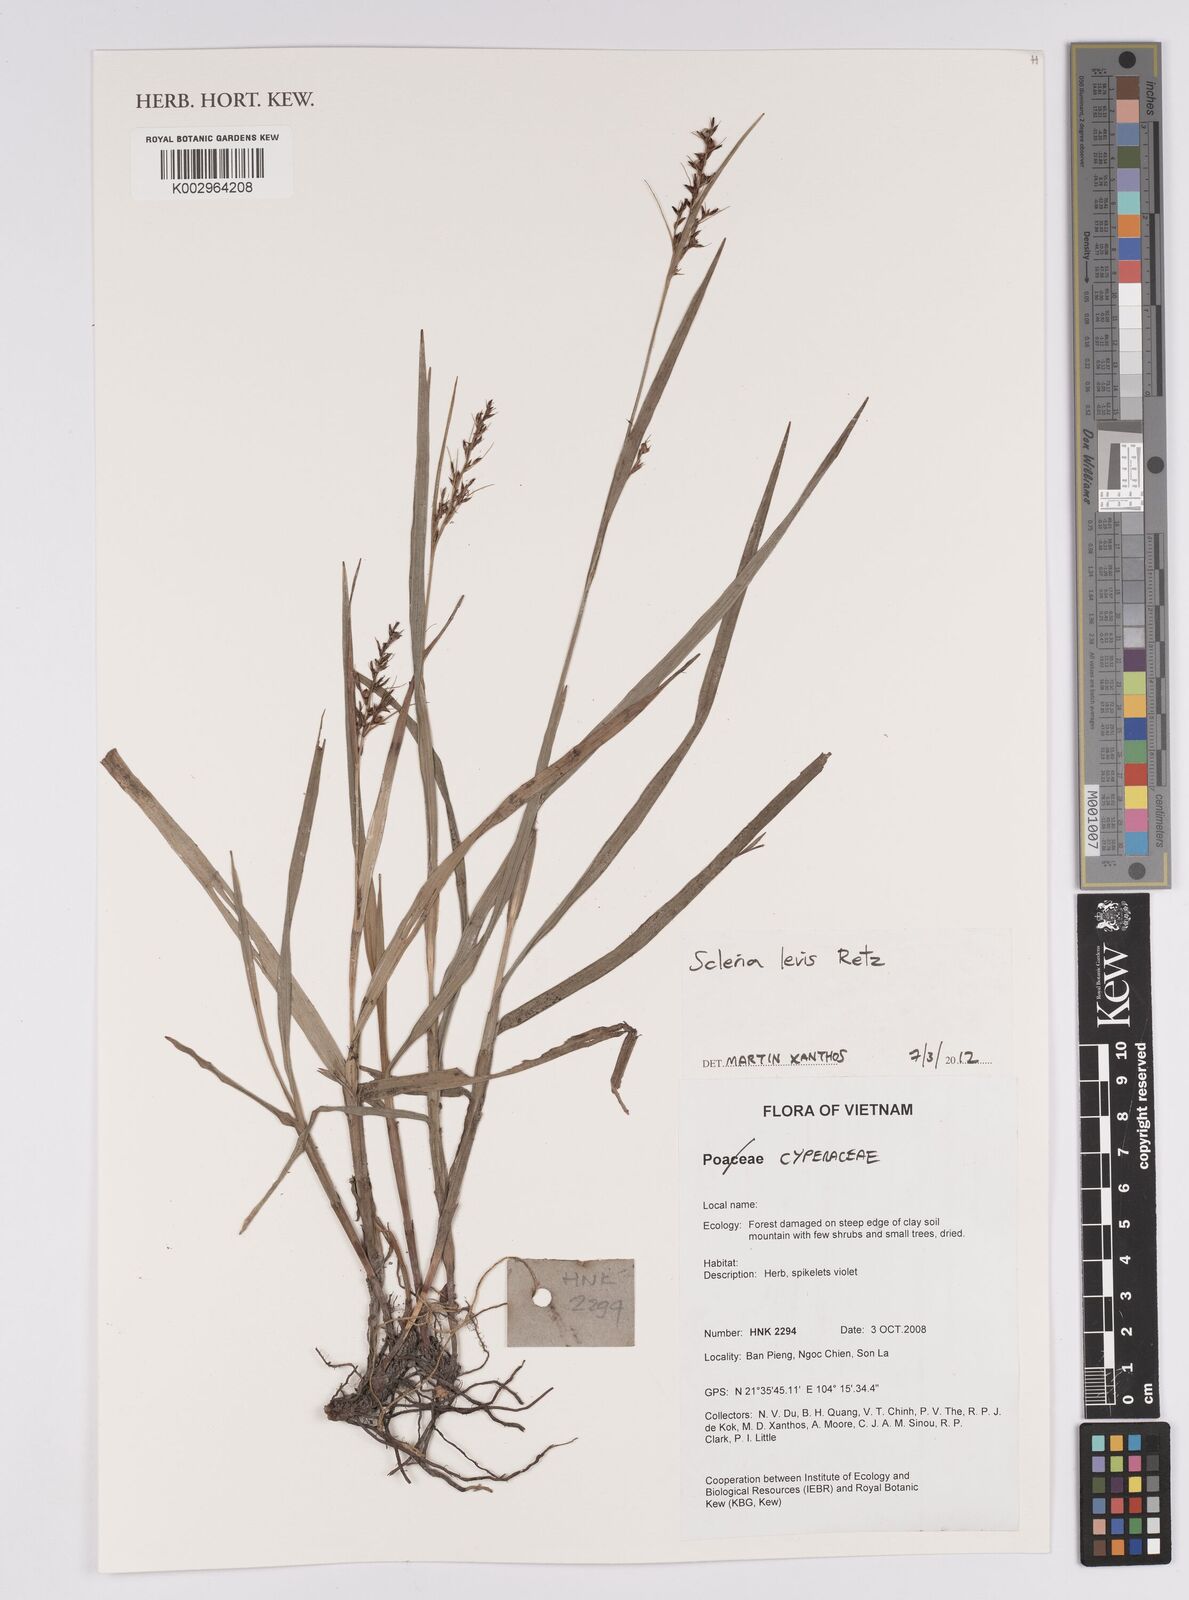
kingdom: Plantae
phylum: Tracheophyta
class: Liliopsida
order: Poales
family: Cyperaceae
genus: Scleria
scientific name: Scleria levis
